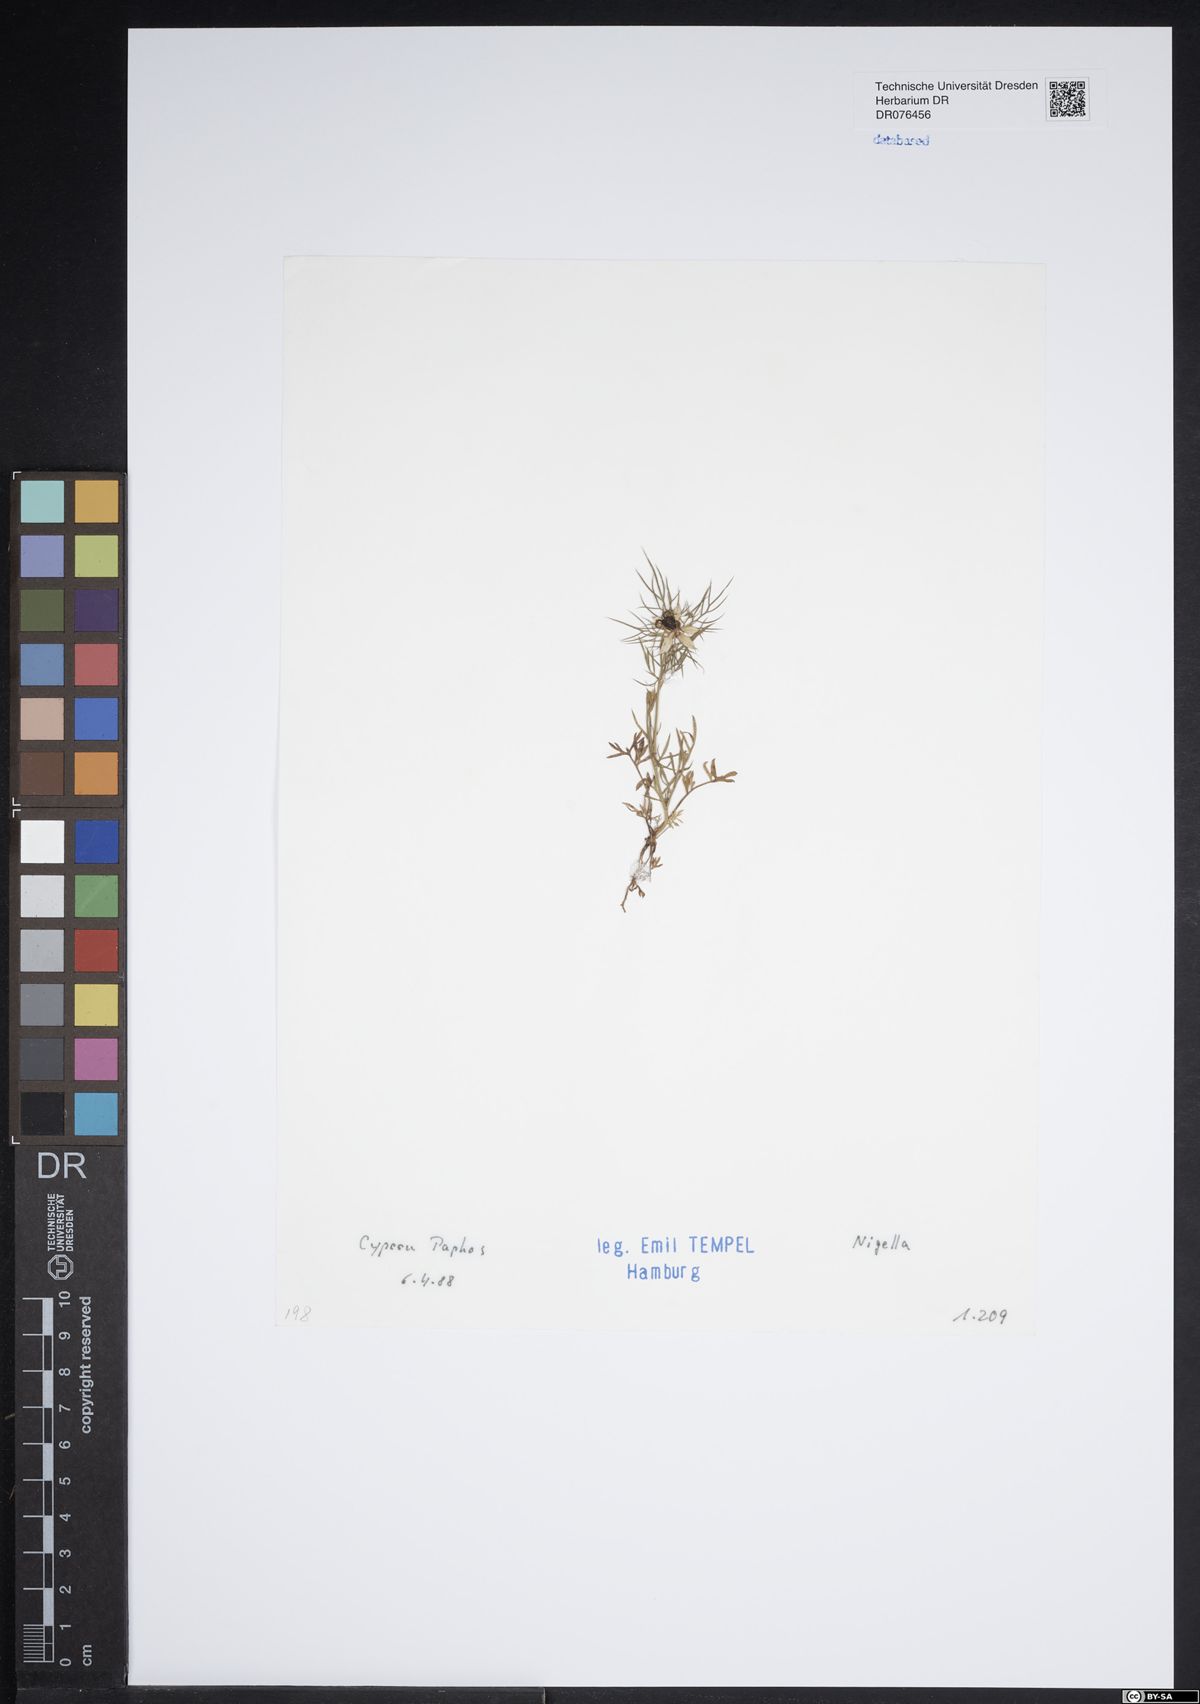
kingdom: Plantae
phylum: Tracheophyta
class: Magnoliopsida
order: Ranunculales
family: Ranunculaceae
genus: Nigella
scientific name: Nigella
